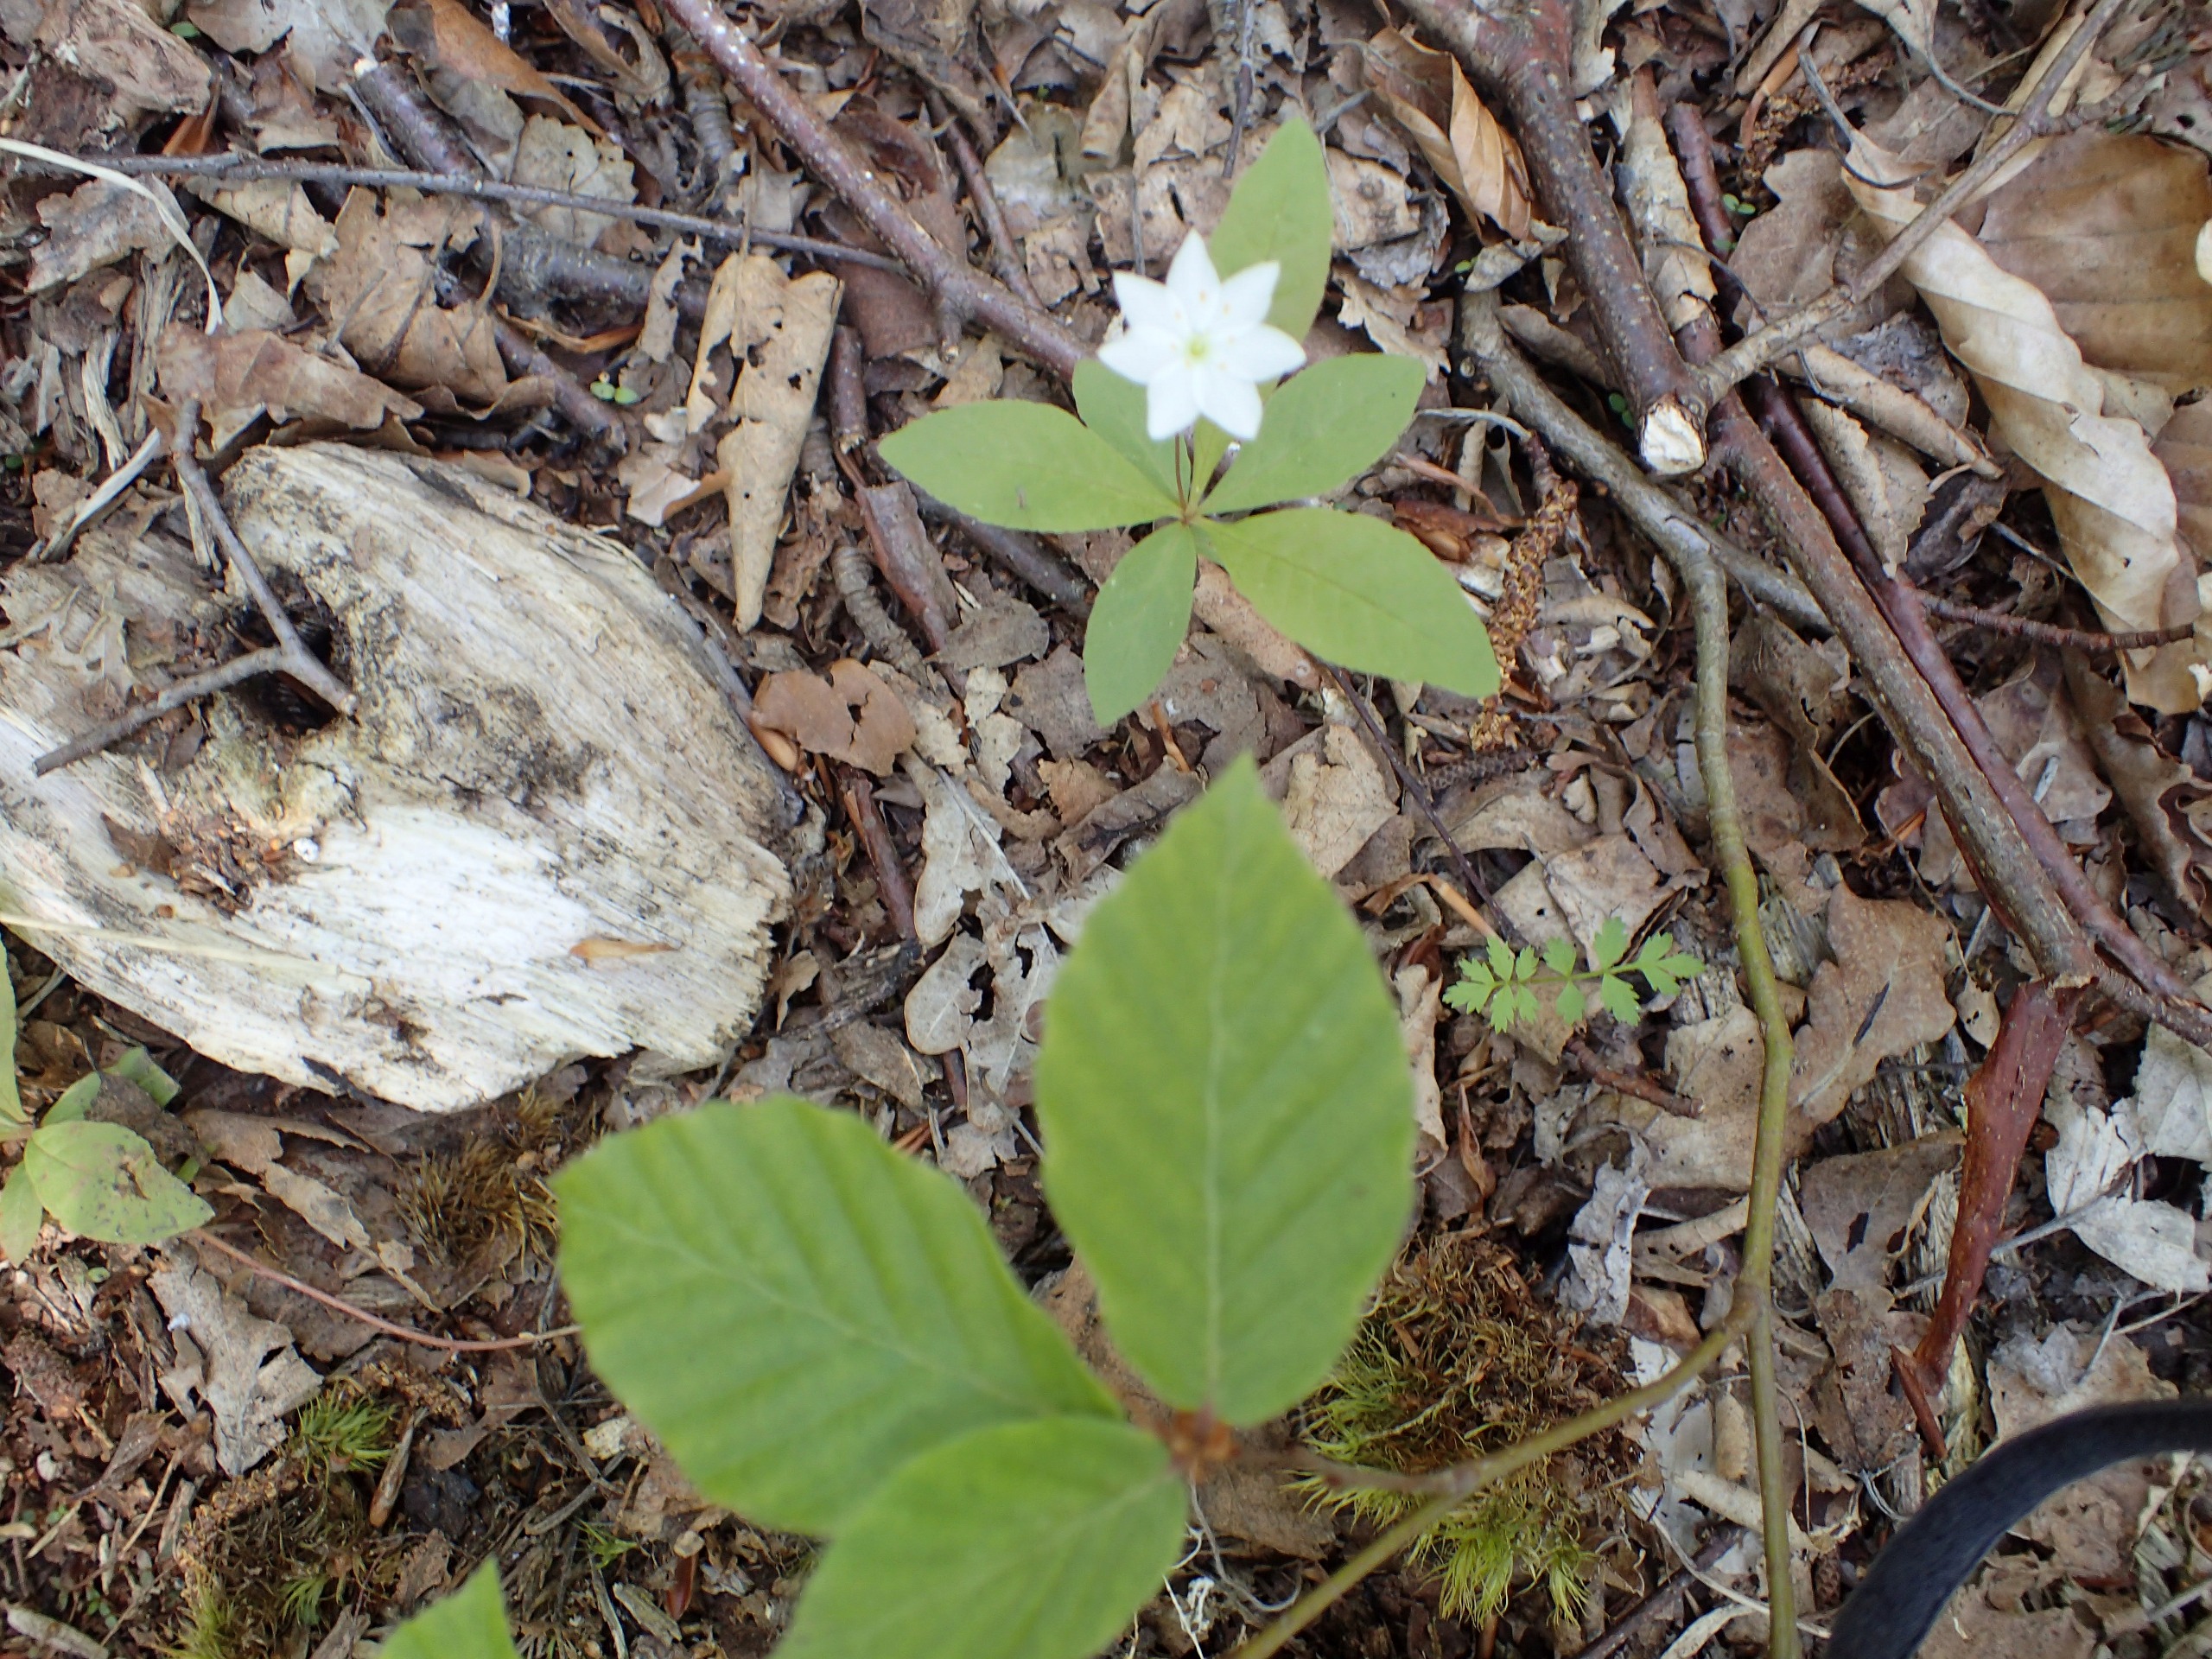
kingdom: Plantae
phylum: Tracheophyta
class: Magnoliopsida
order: Ericales
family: Primulaceae
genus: Lysimachia
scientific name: Lysimachia europaea
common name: Skovstjerne
